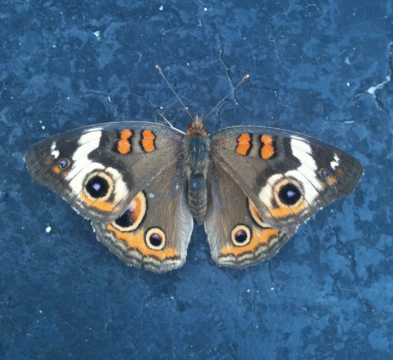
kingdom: Animalia
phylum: Arthropoda
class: Insecta
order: Lepidoptera
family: Nymphalidae
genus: Junonia
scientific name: Junonia coenia
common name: Common Buckeye
